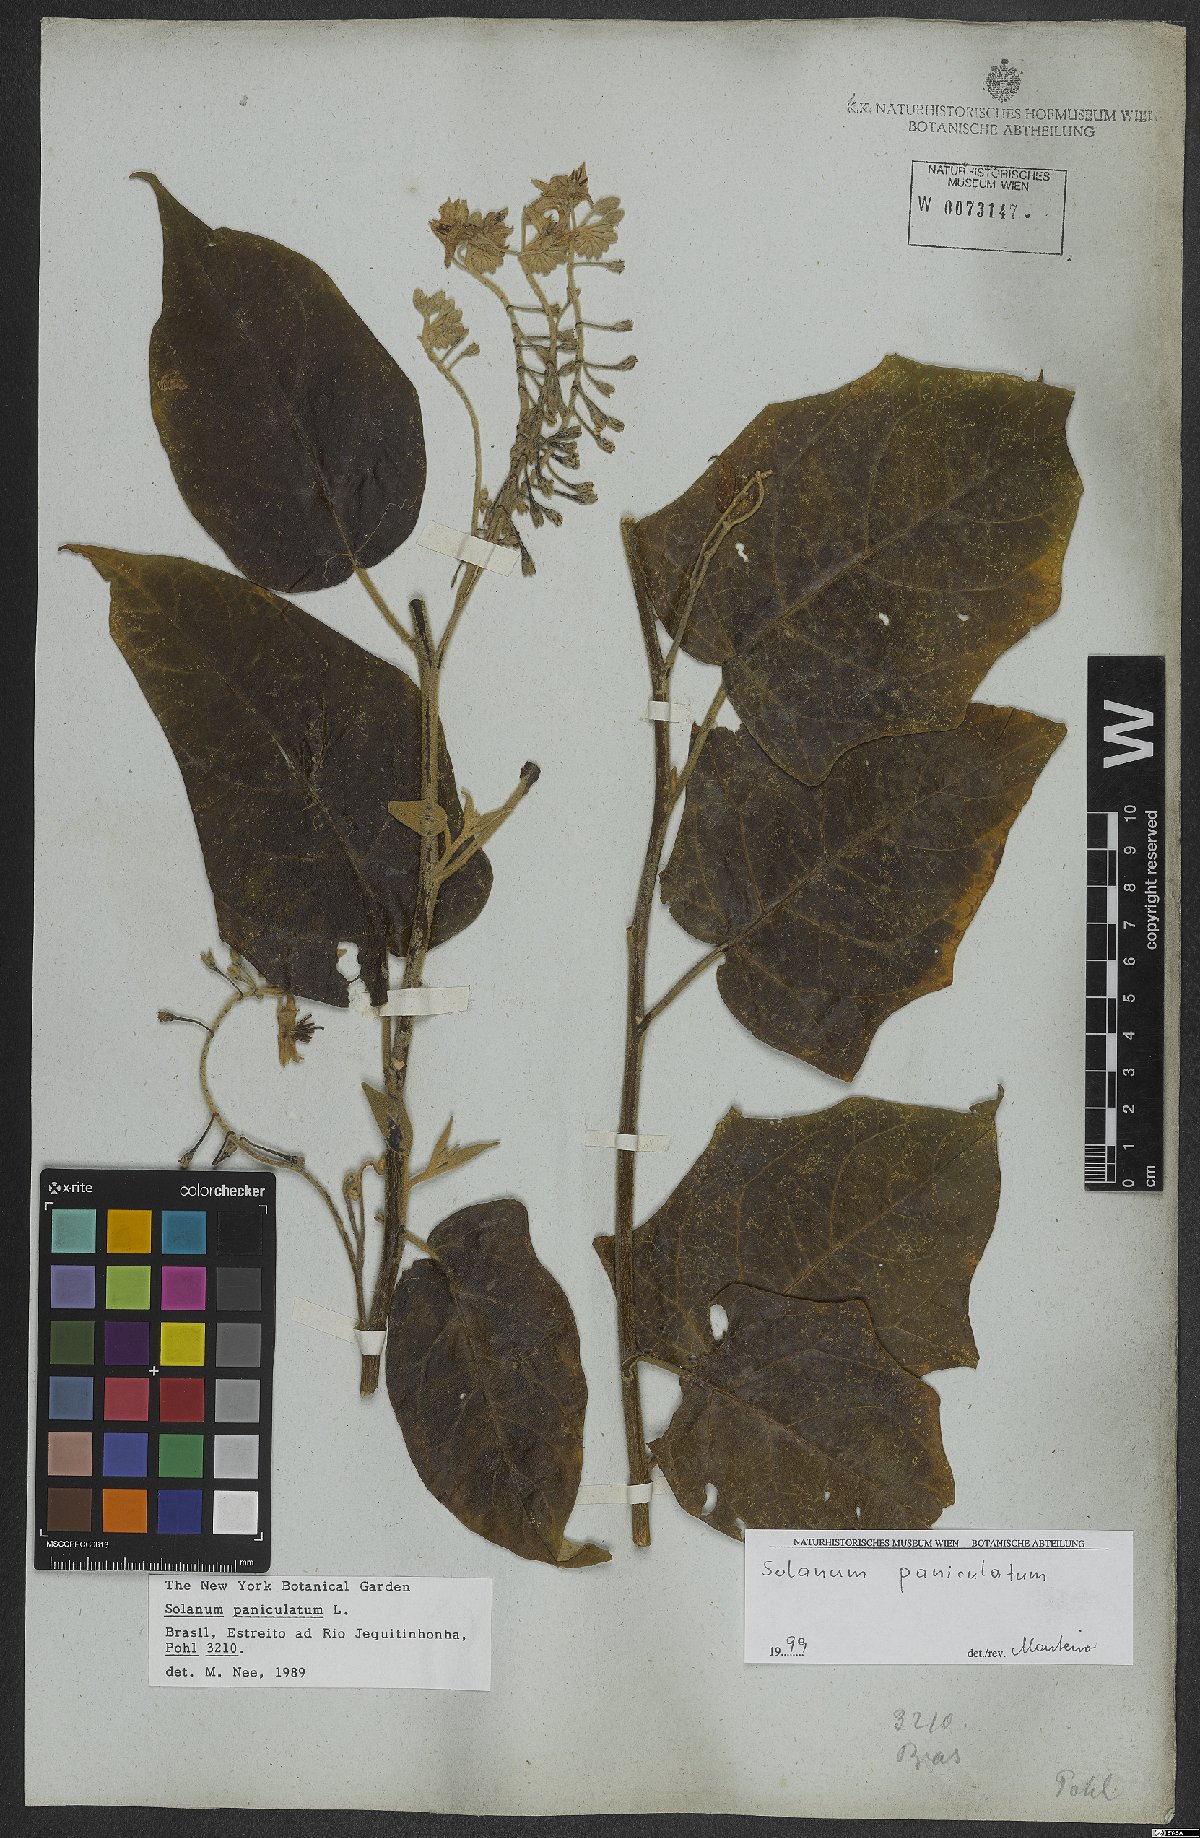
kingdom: Plantae
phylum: Tracheophyta
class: Magnoliopsida
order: Solanales
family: Solanaceae
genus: Solanum
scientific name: Solanum paniculatum
